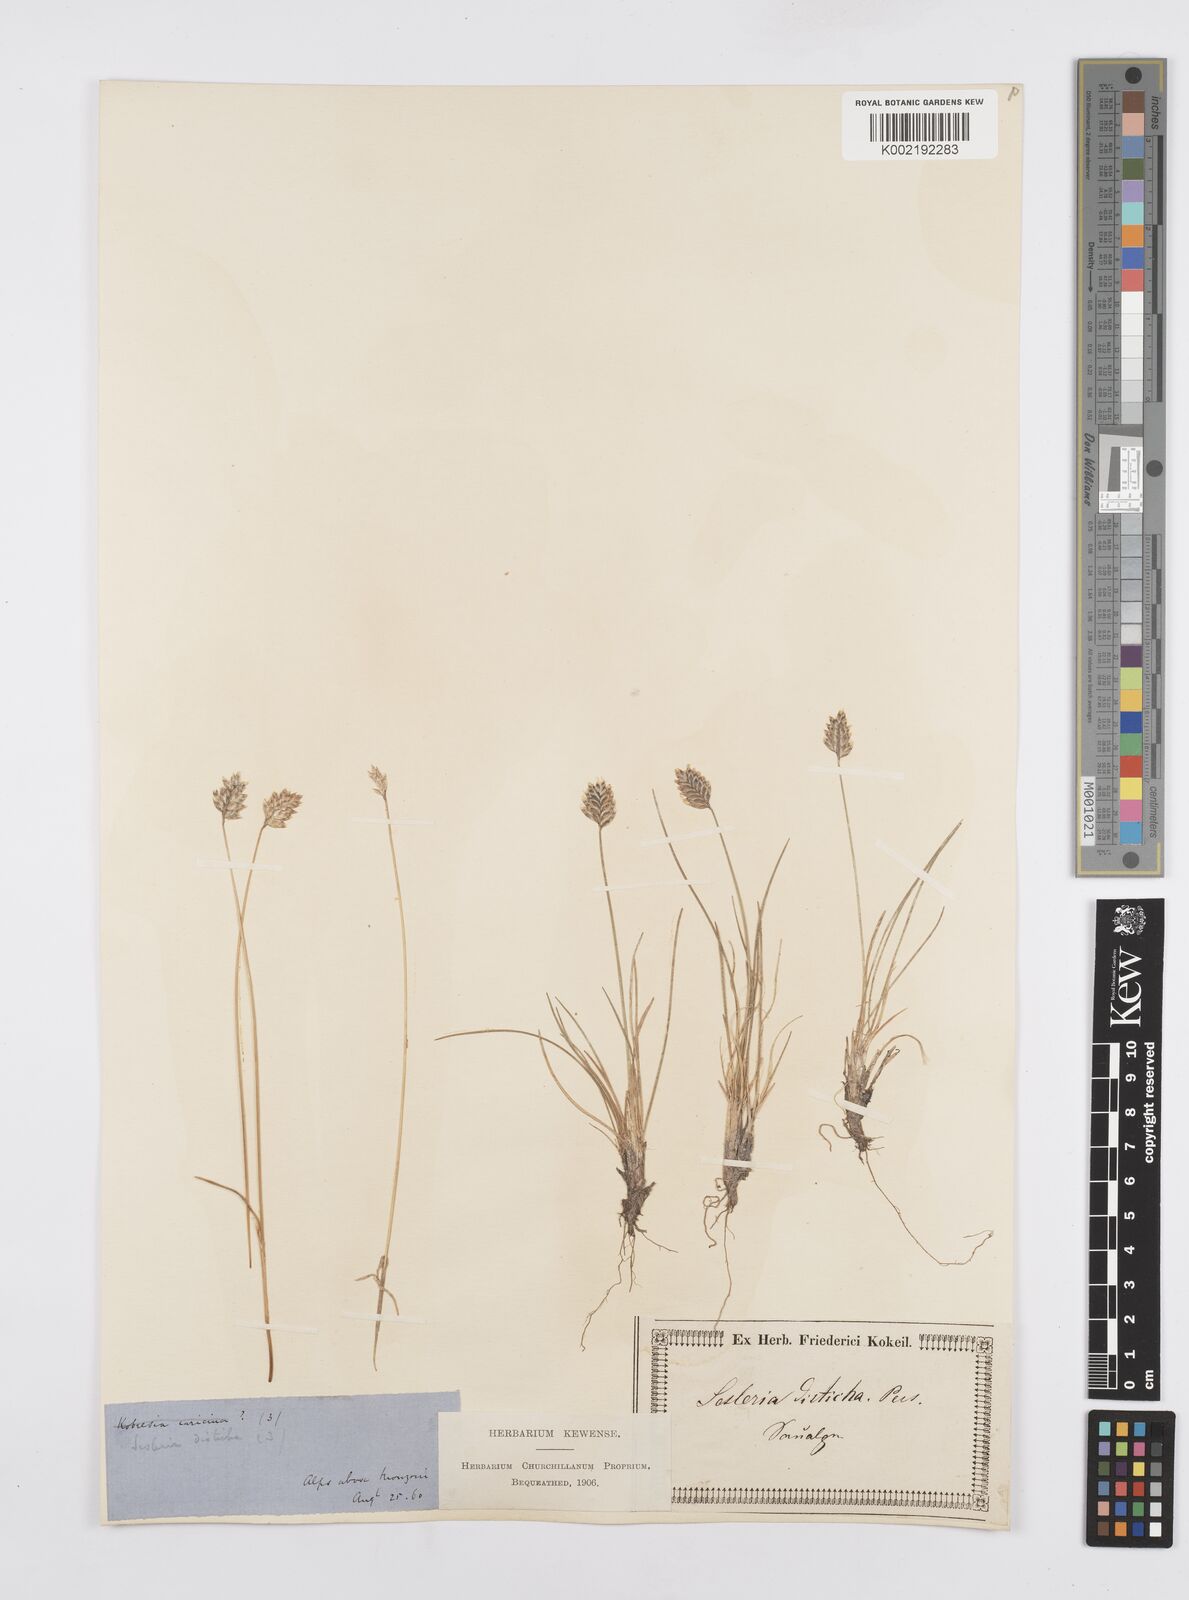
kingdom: Plantae
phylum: Tracheophyta
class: Liliopsida
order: Poales
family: Poaceae
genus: Oreochloa
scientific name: Oreochloa disticha
